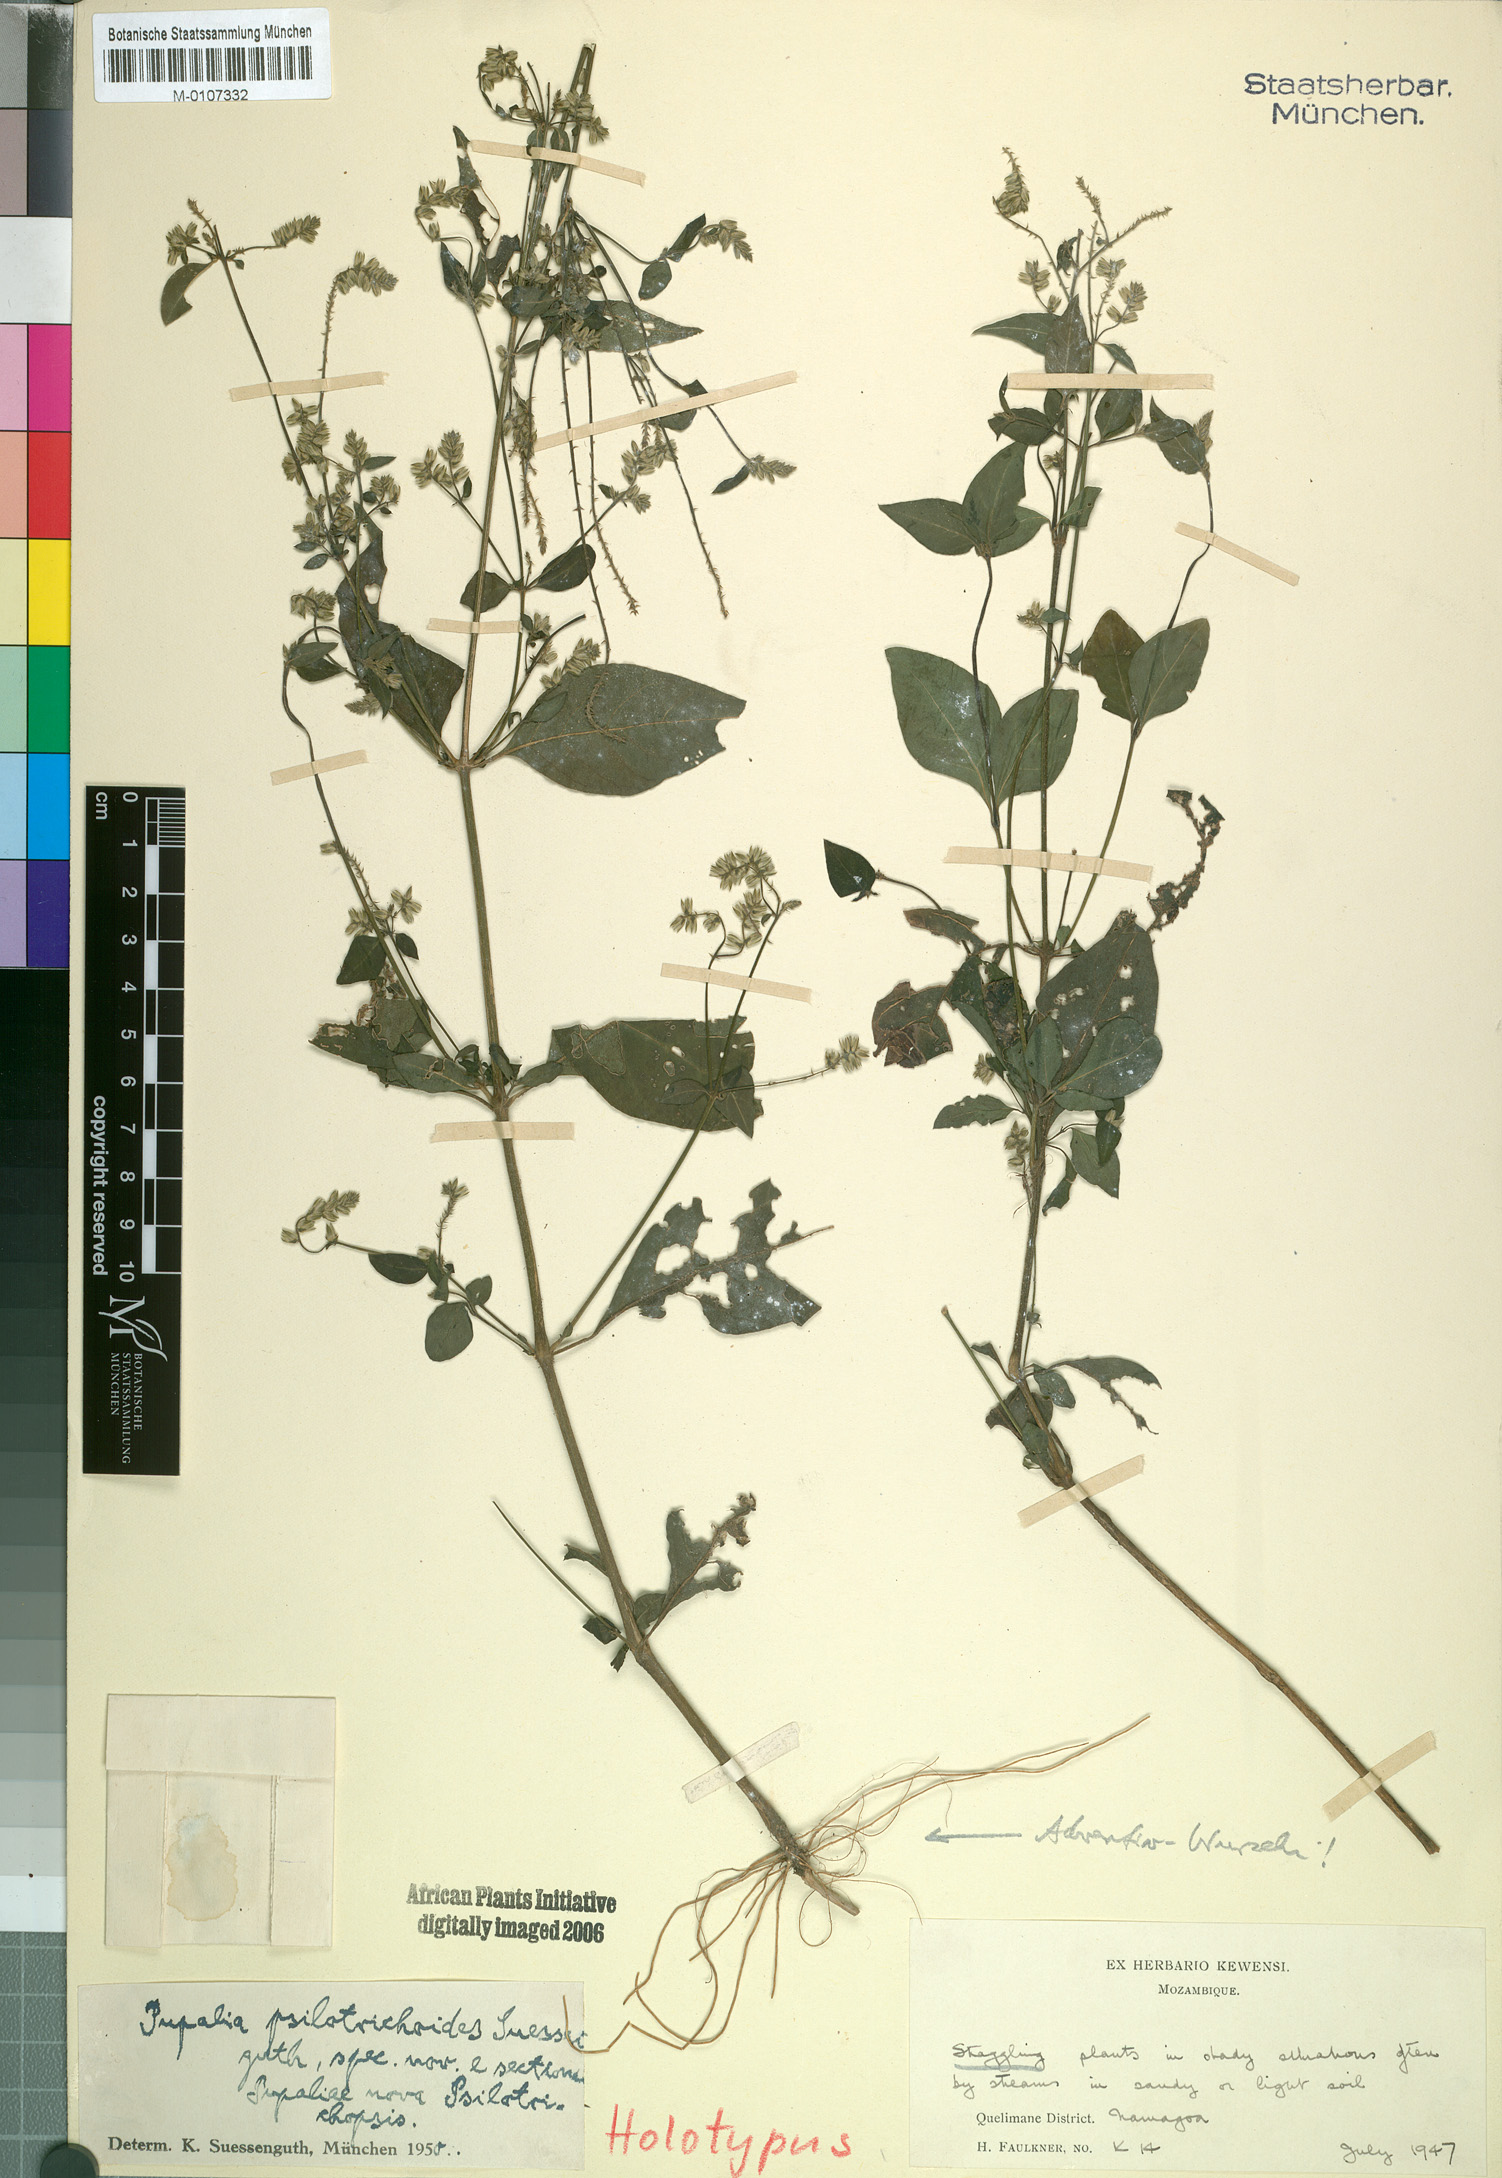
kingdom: Plantae
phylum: Tracheophyta
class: Magnoliopsida
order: Caryophyllales
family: Amaranthaceae
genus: Pupalia
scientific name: Pupalia micrantha
